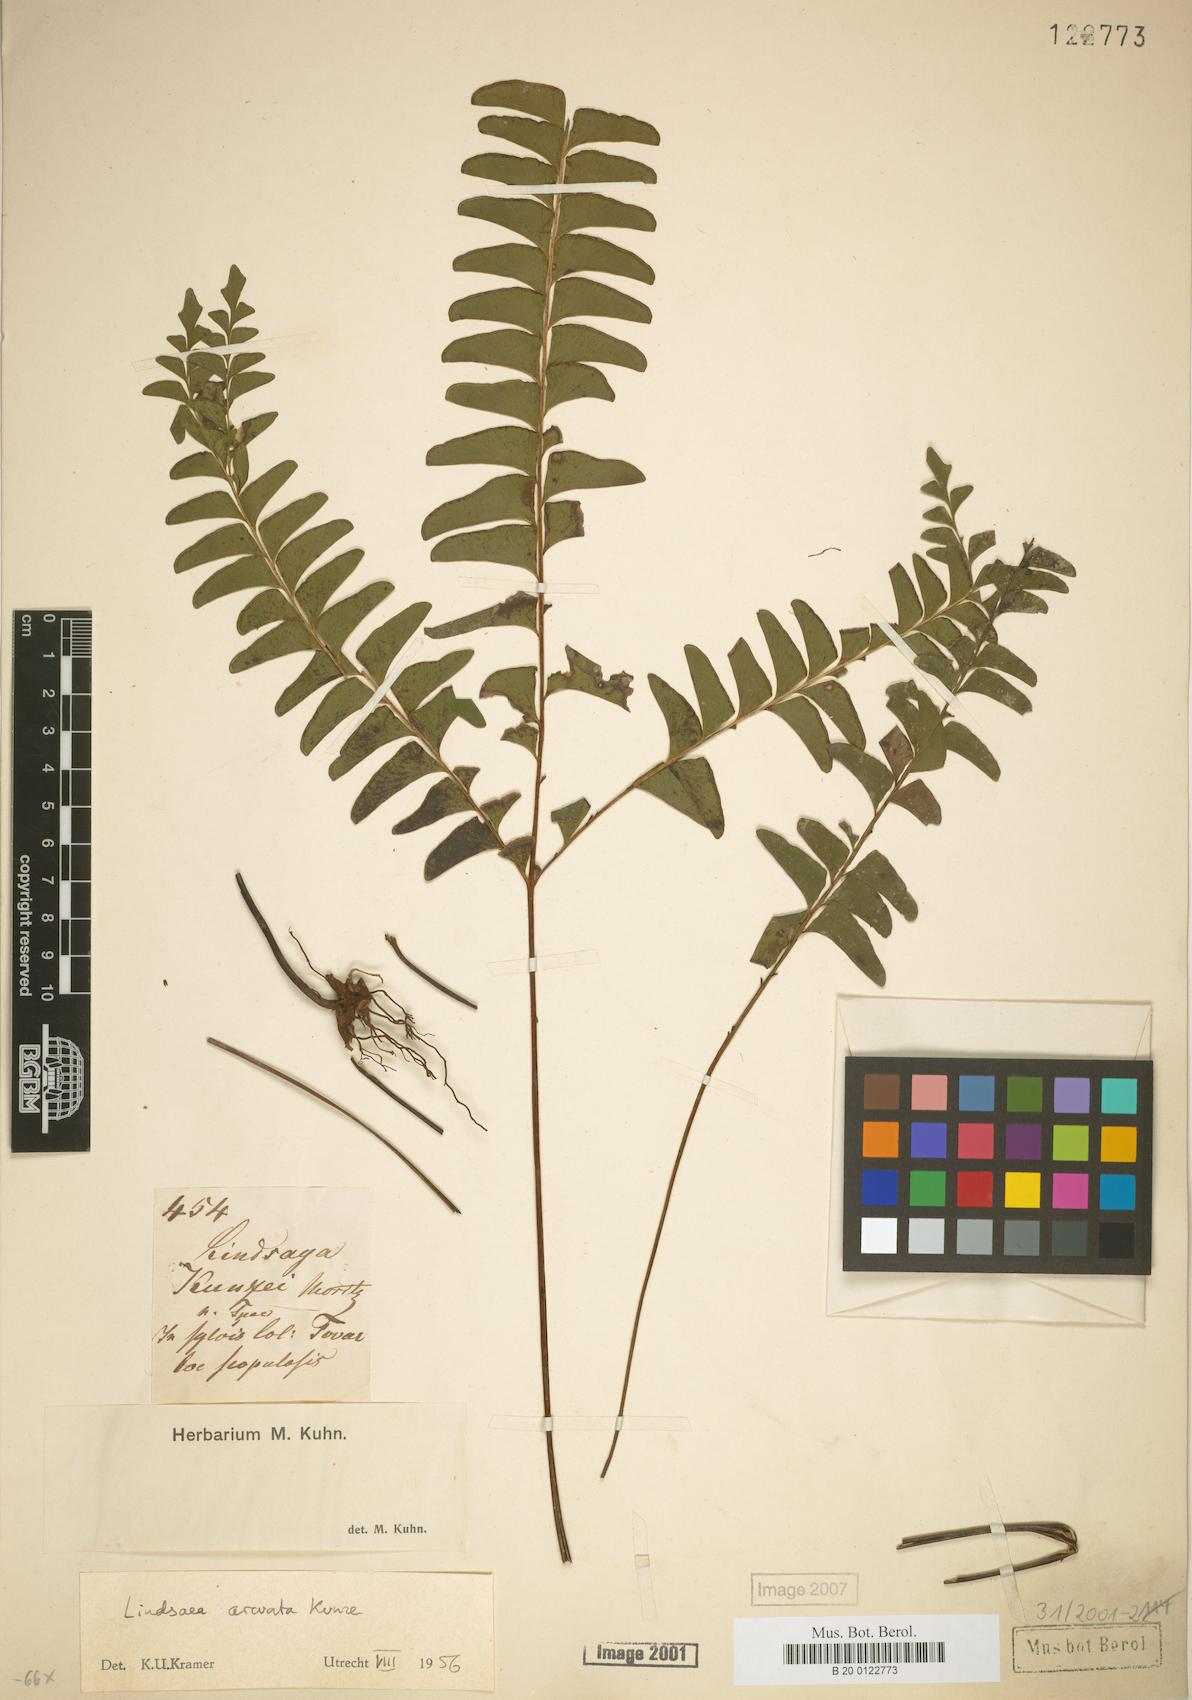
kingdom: Plantae
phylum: Tracheophyta
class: Polypodiopsida
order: Polypodiales
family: Lindsaeaceae
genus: Lindsaea
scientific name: Lindsaea arcuata
